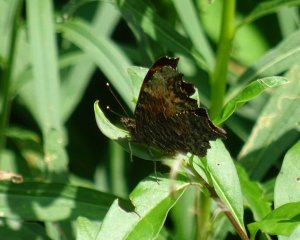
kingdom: Animalia
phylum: Arthropoda
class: Insecta
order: Lepidoptera
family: Nymphalidae
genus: Polygonia
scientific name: Polygonia progne
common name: Gray Comma
